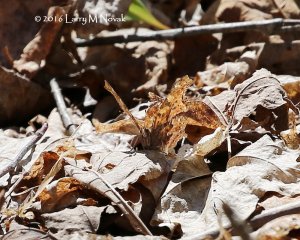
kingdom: Animalia
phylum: Arthropoda
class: Insecta
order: Lepidoptera
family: Nymphalidae
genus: Polygonia
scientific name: Polygonia comma
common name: Eastern Comma
